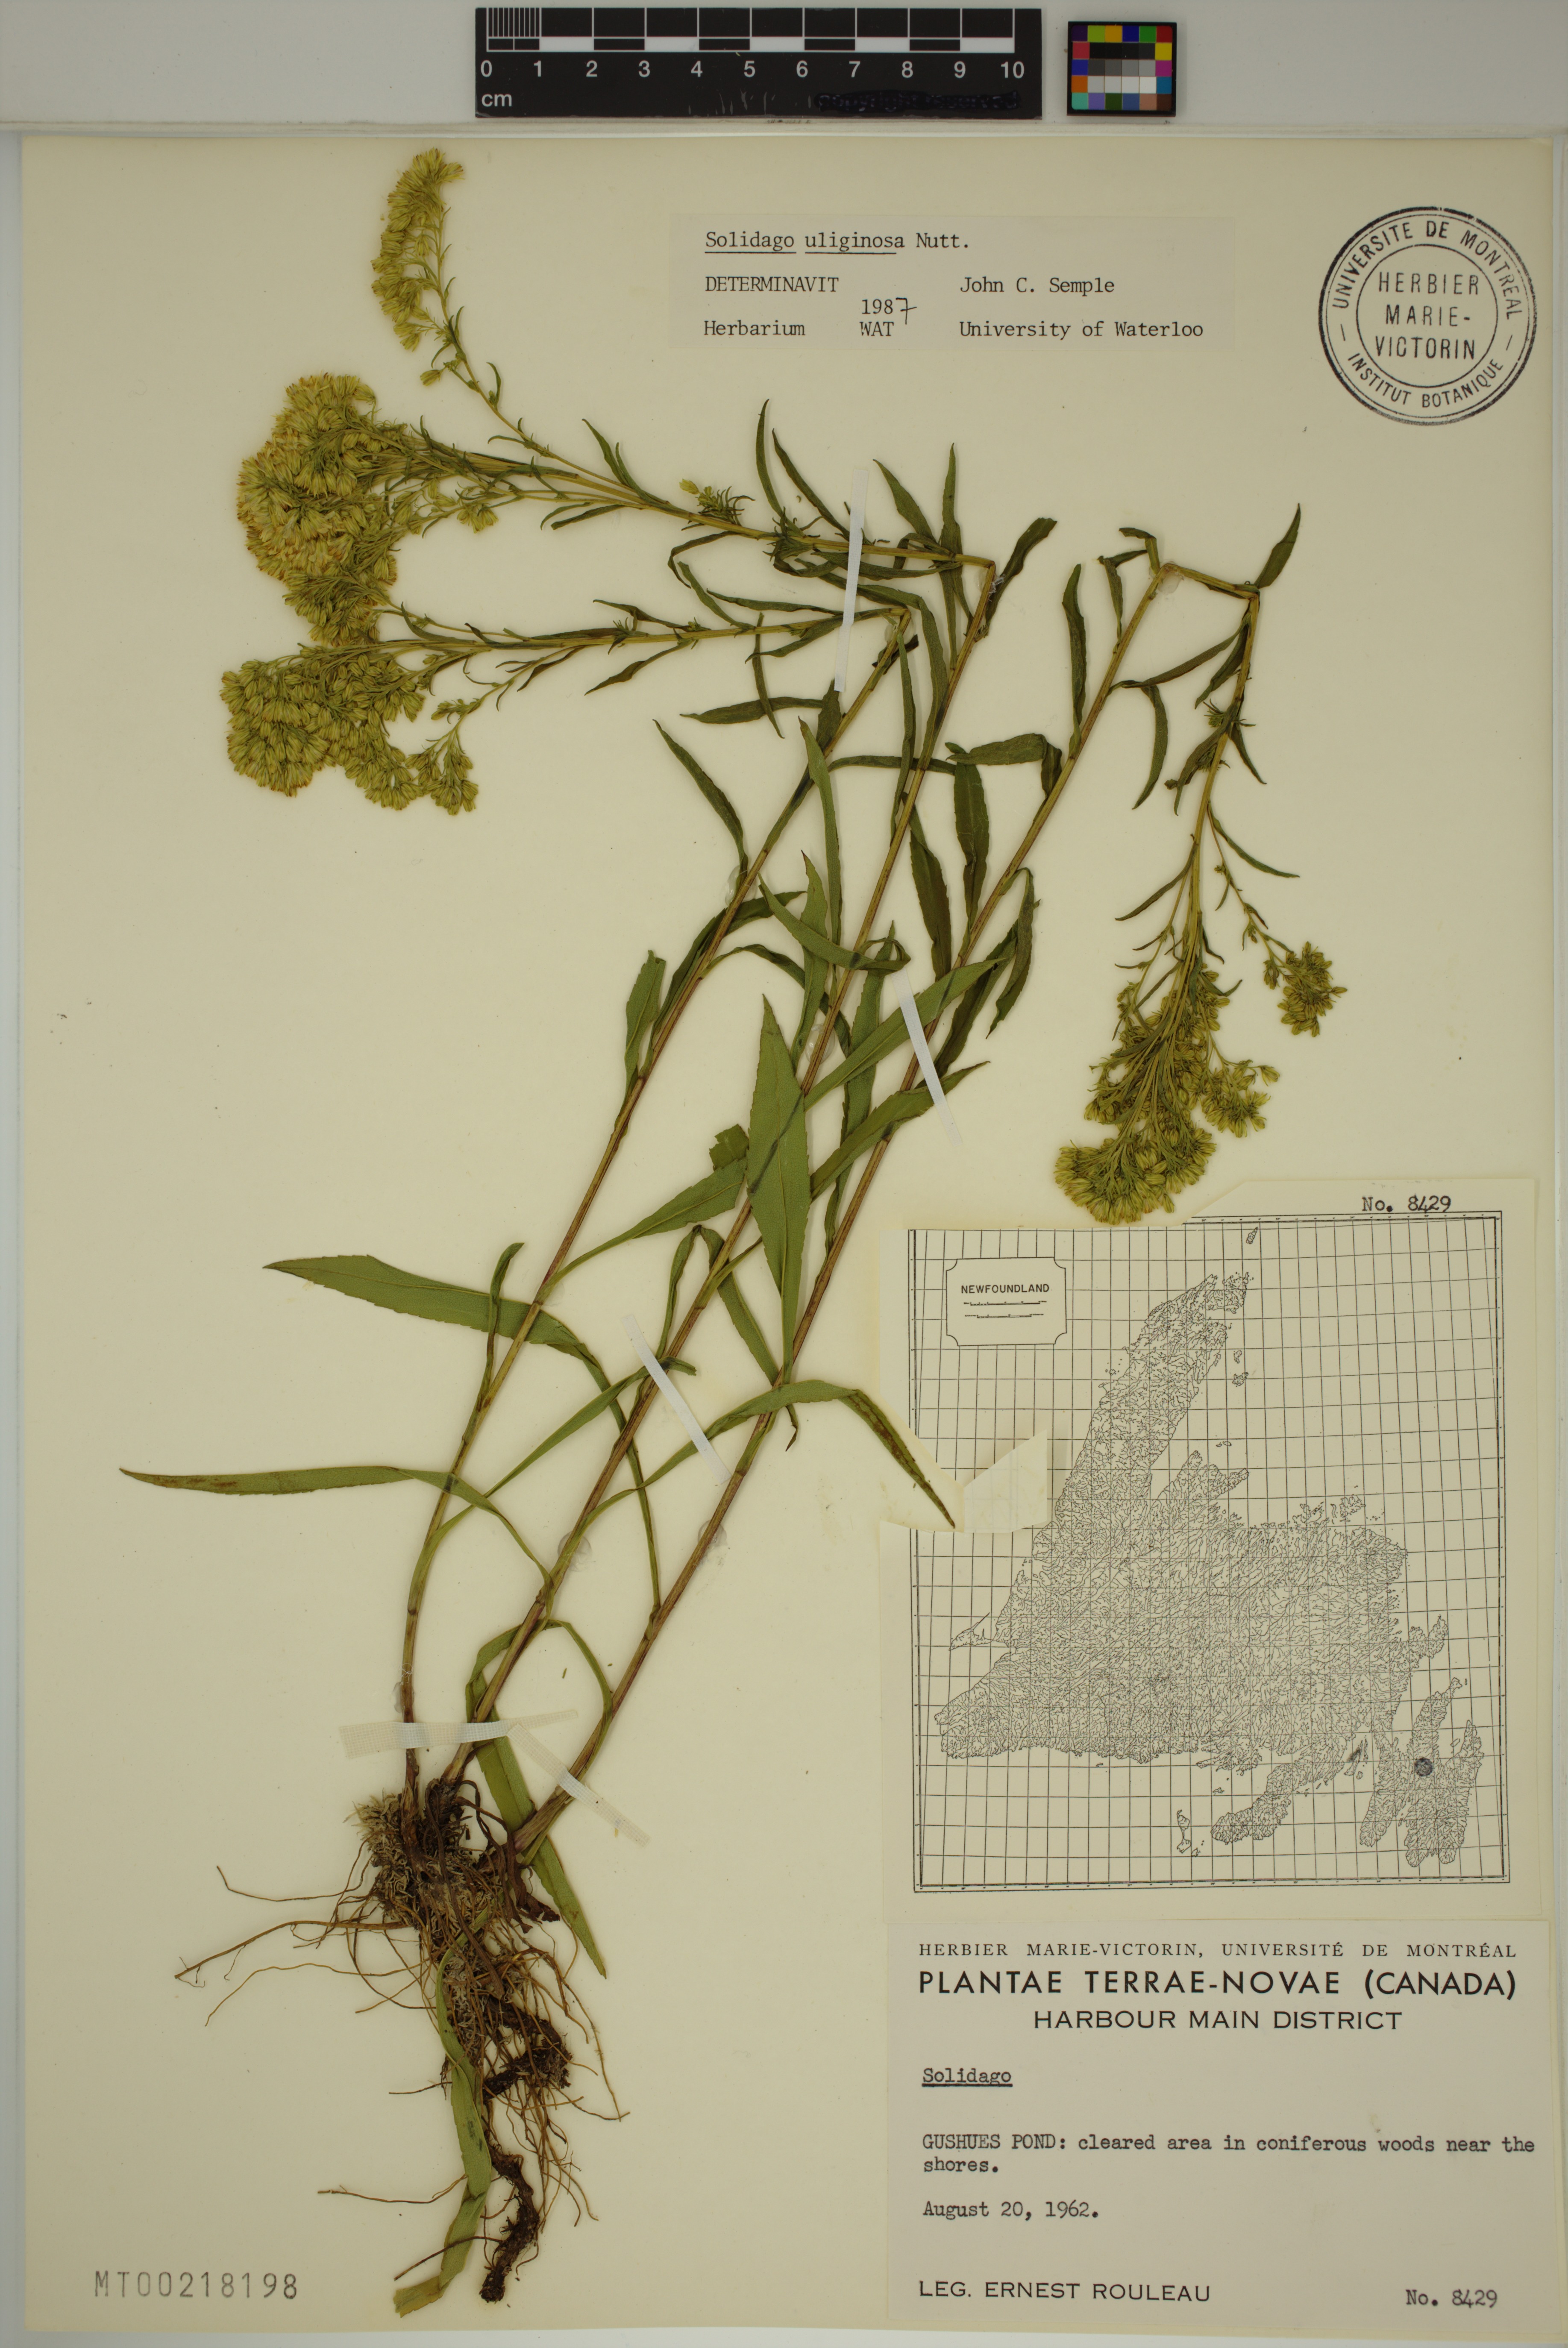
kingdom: Plantae
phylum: Tracheophyta
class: Magnoliopsida
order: Asterales
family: Asteraceae
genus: Solidago
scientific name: Solidago uliginosa
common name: Bog goldenrod
